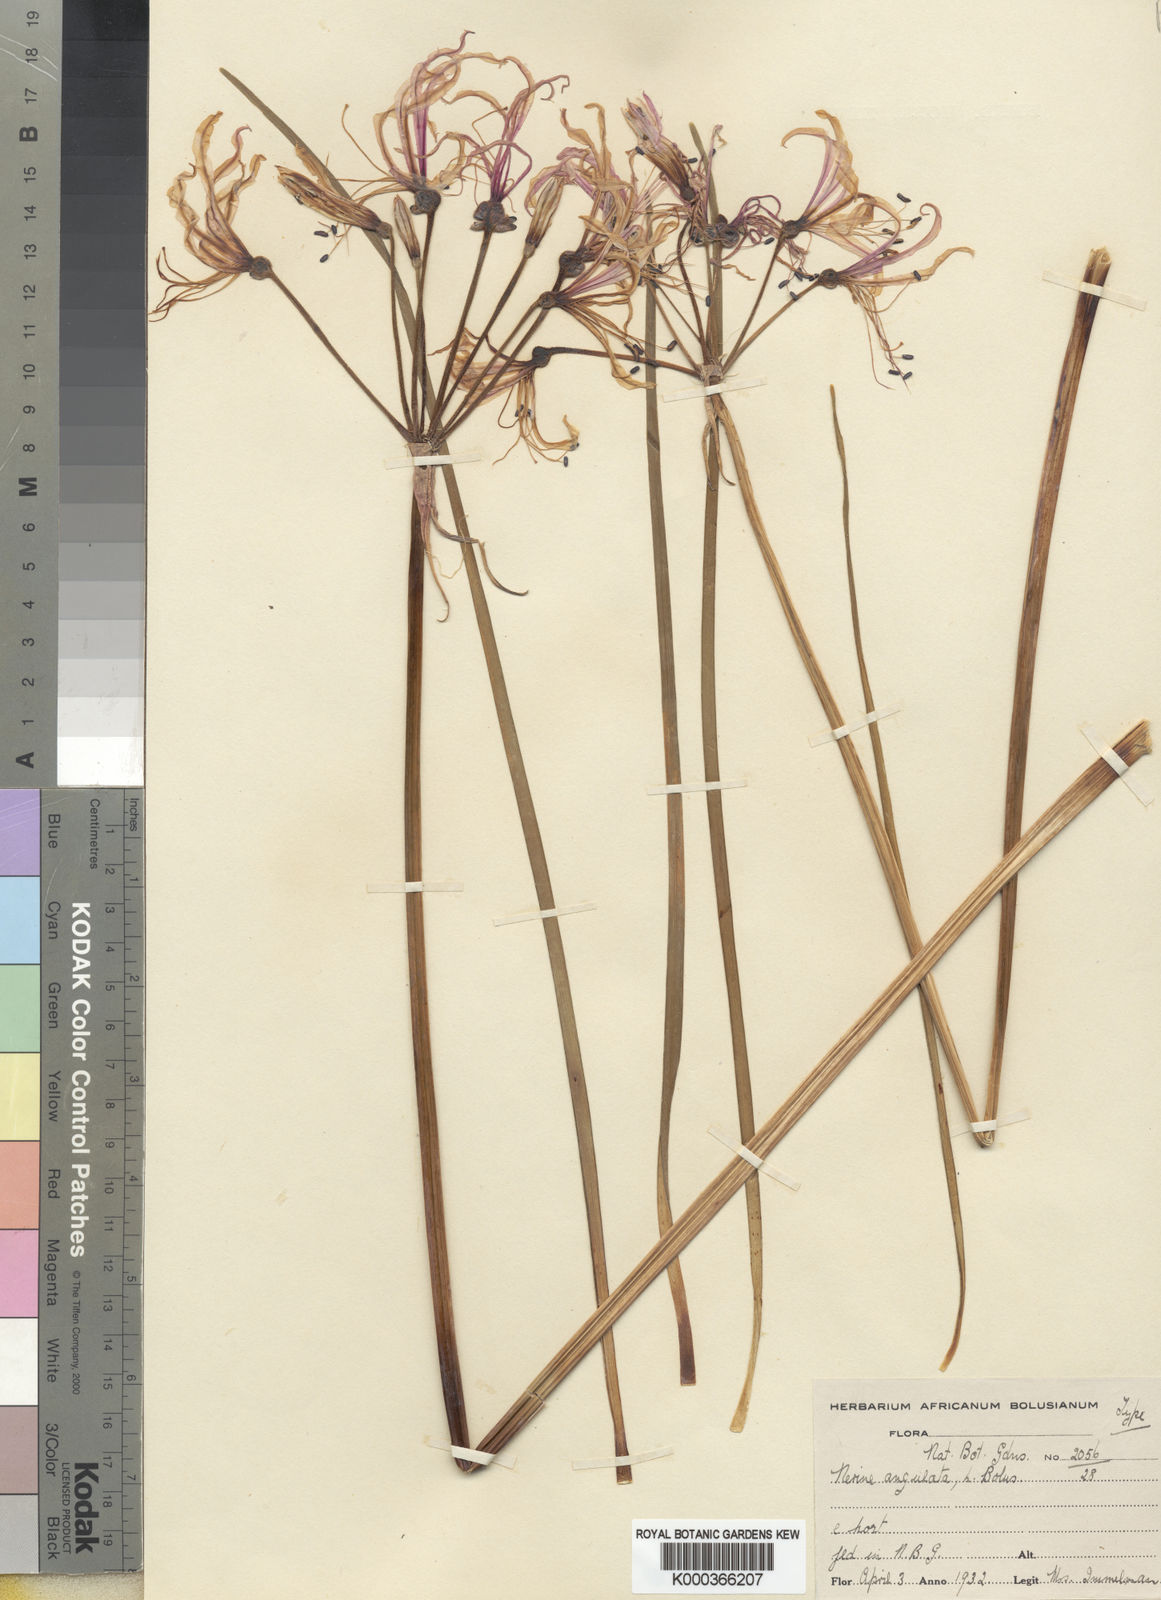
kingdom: Plantae
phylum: Tracheophyta
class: Liliopsida
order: Asparagales
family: Amaryllidaceae
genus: Nerine
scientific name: Nerine angustifolia
